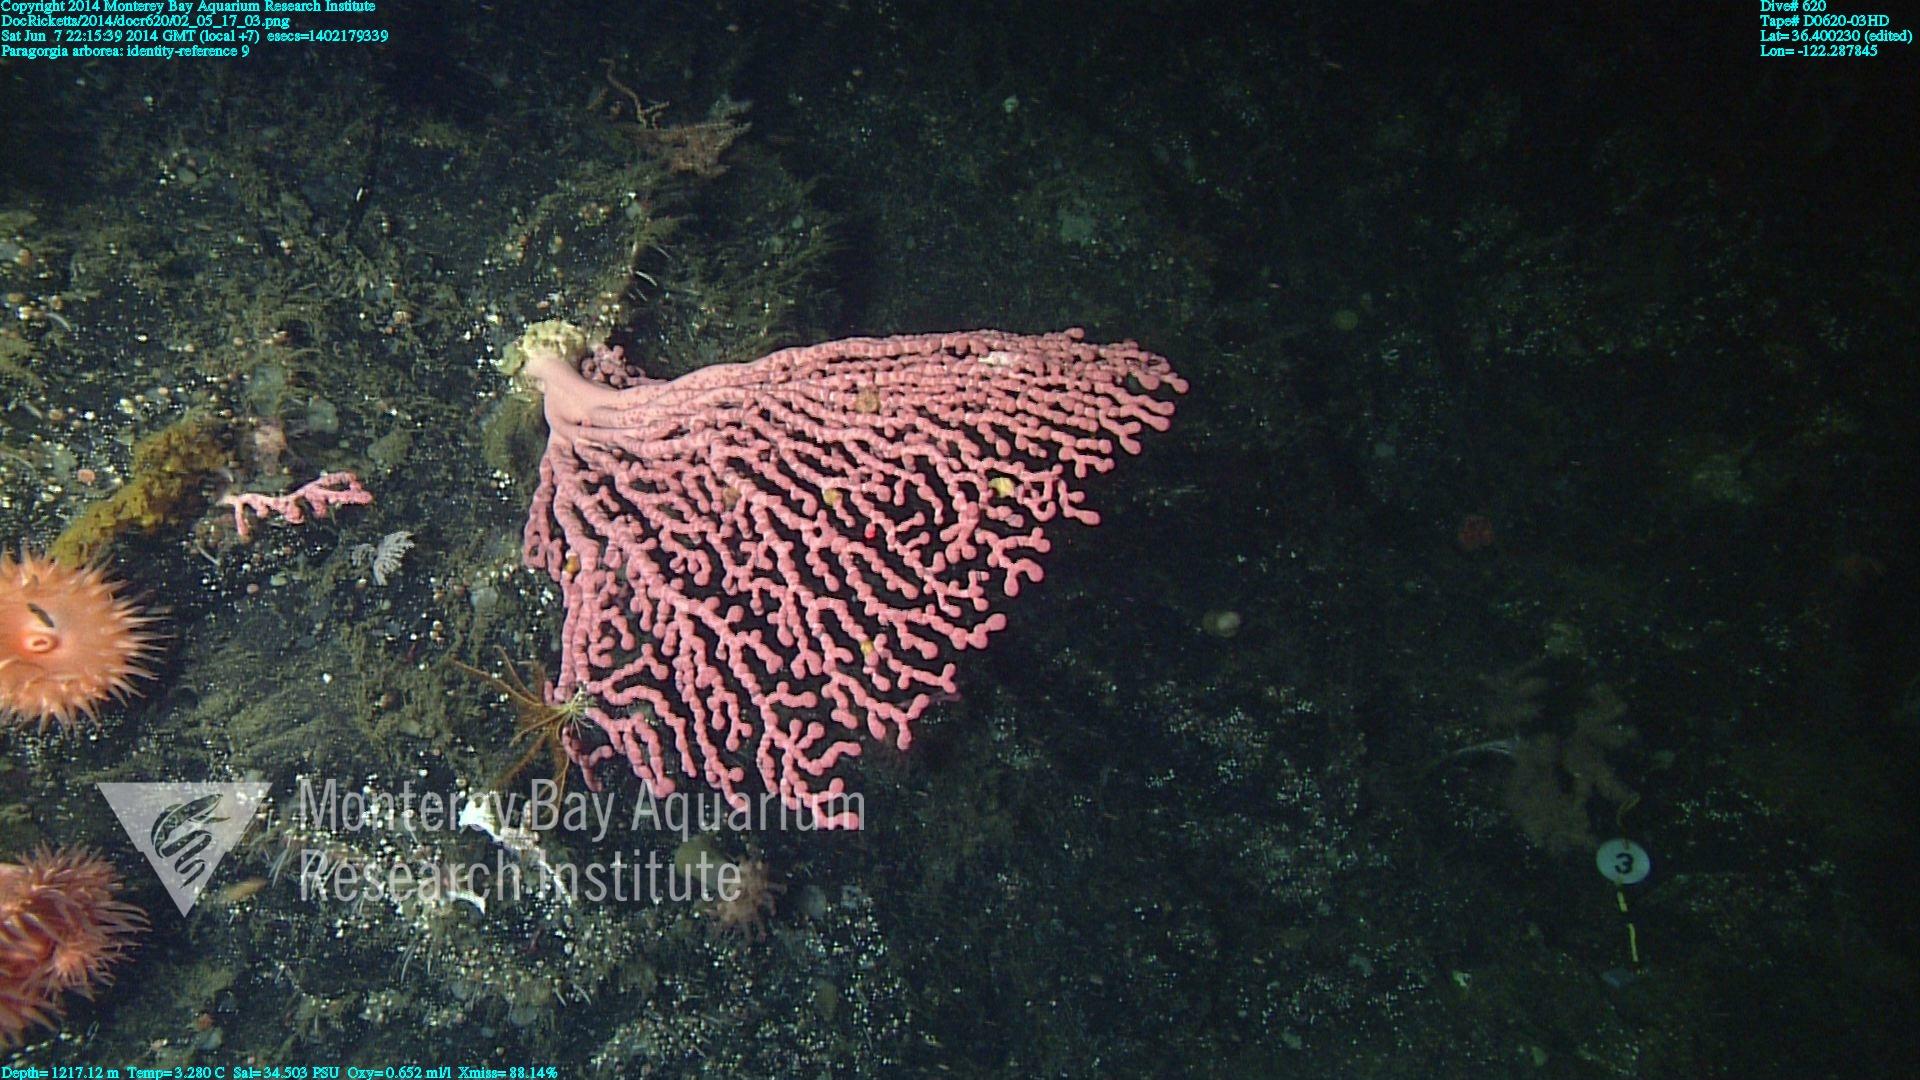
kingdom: Animalia
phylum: Cnidaria
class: Anthozoa
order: Scleralcyonacea
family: Coralliidae
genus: Paragorgia
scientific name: Paragorgia arborea
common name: Bubble gum coral
